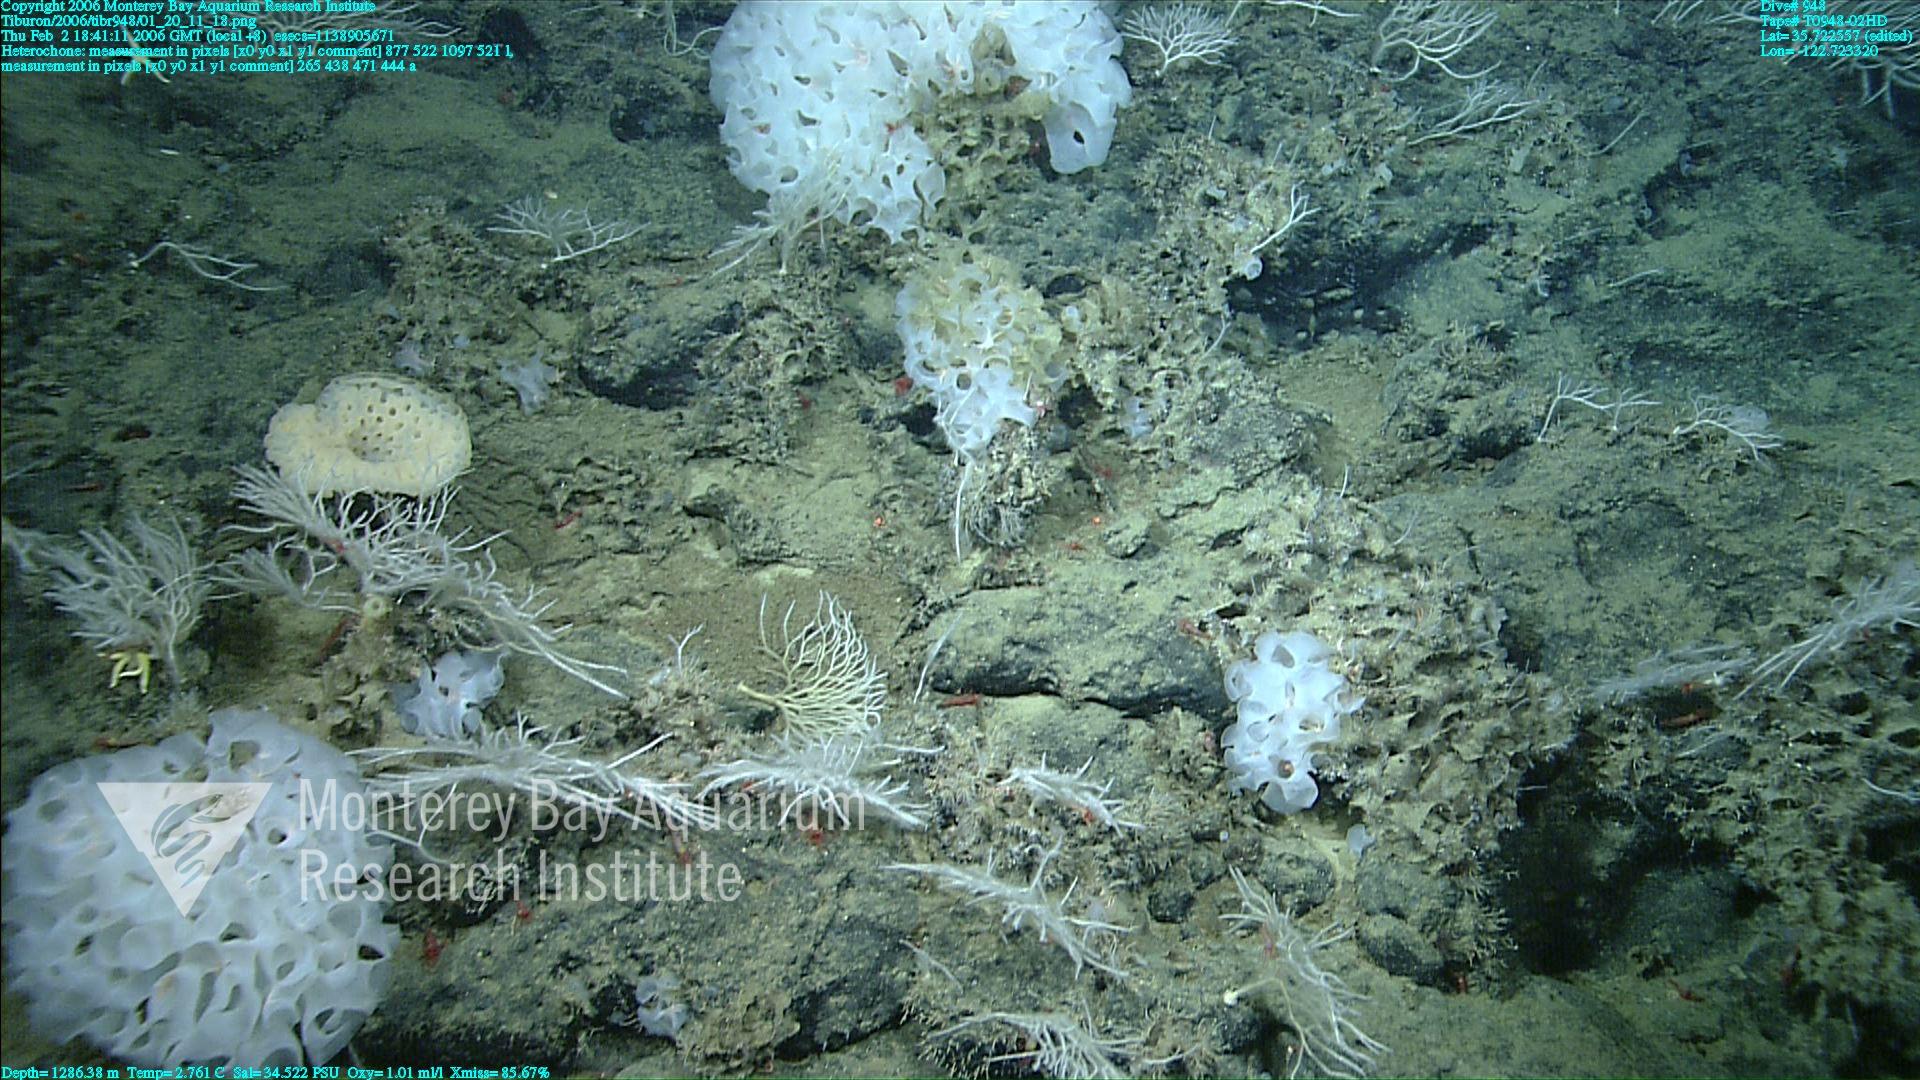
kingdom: Animalia
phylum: Porifera
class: Hexactinellida
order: Sceptrulophora
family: Aphrocallistidae
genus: Heterochone
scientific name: Heterochone
